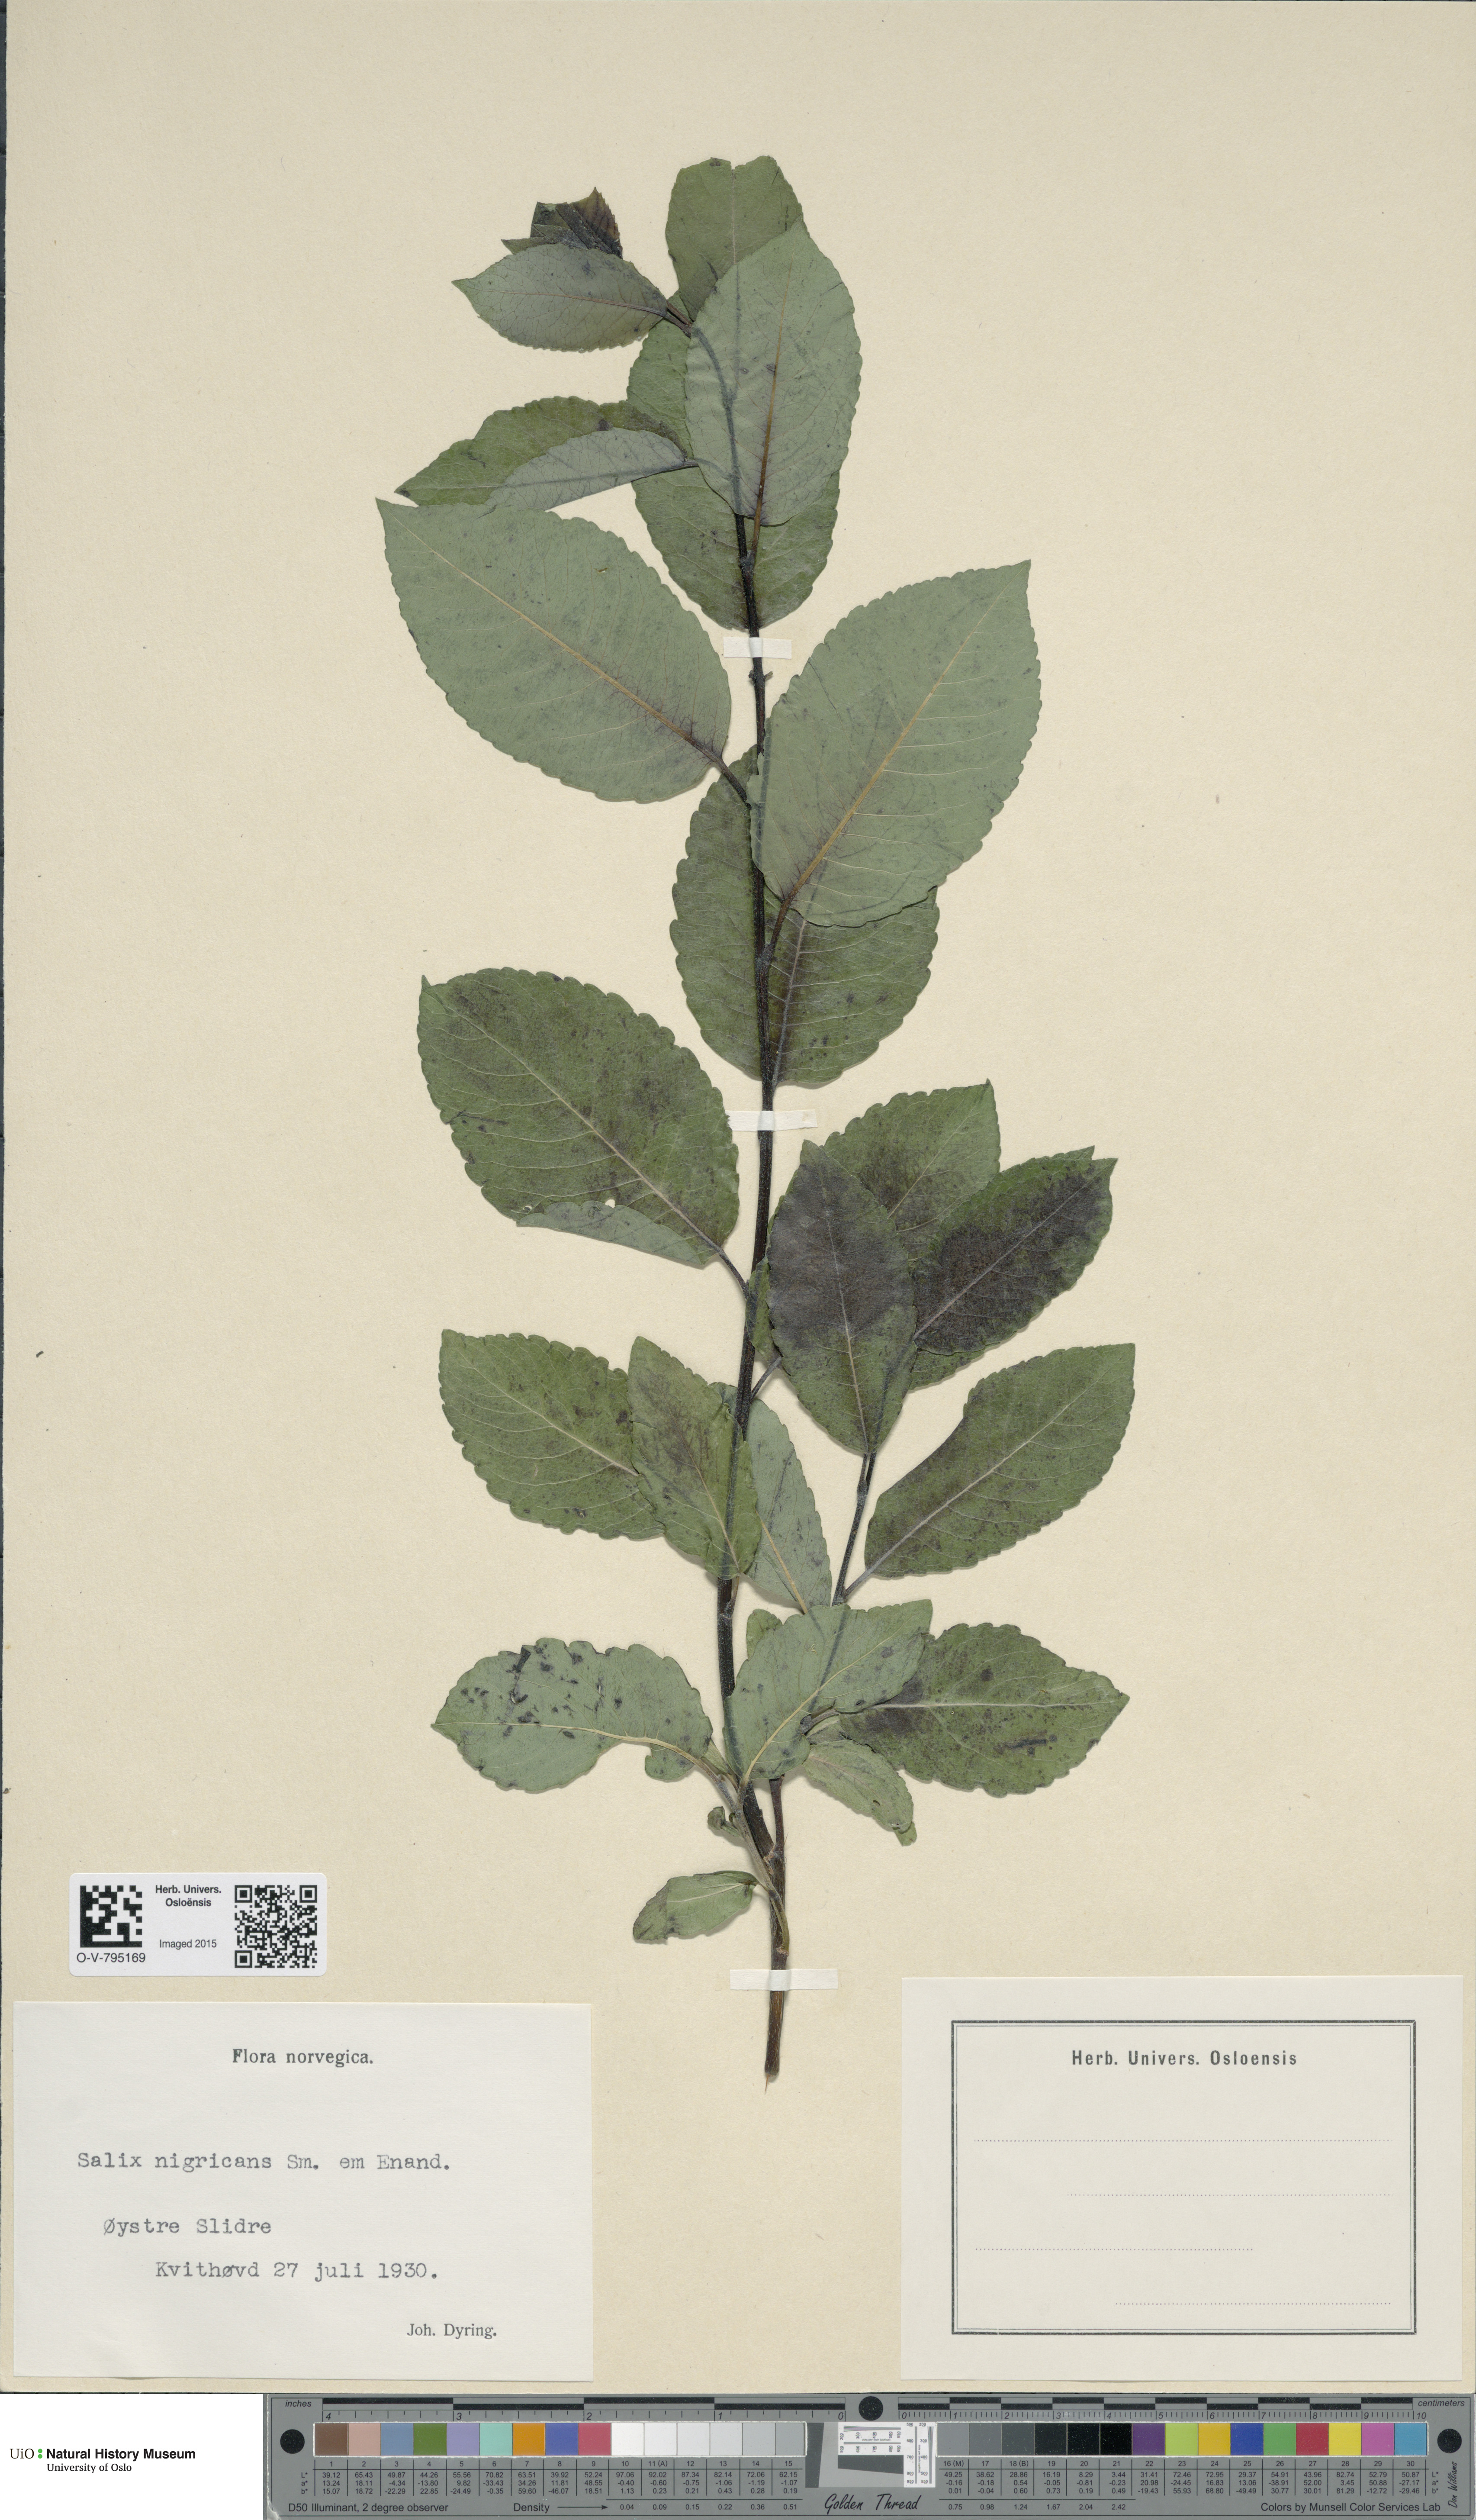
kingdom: Plantae
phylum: Tracheophyta
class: Magnoliopsida
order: Malpighiales
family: Salicaceae
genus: Salix
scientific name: Salix myrsinifolia
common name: Dark-leaved willow
